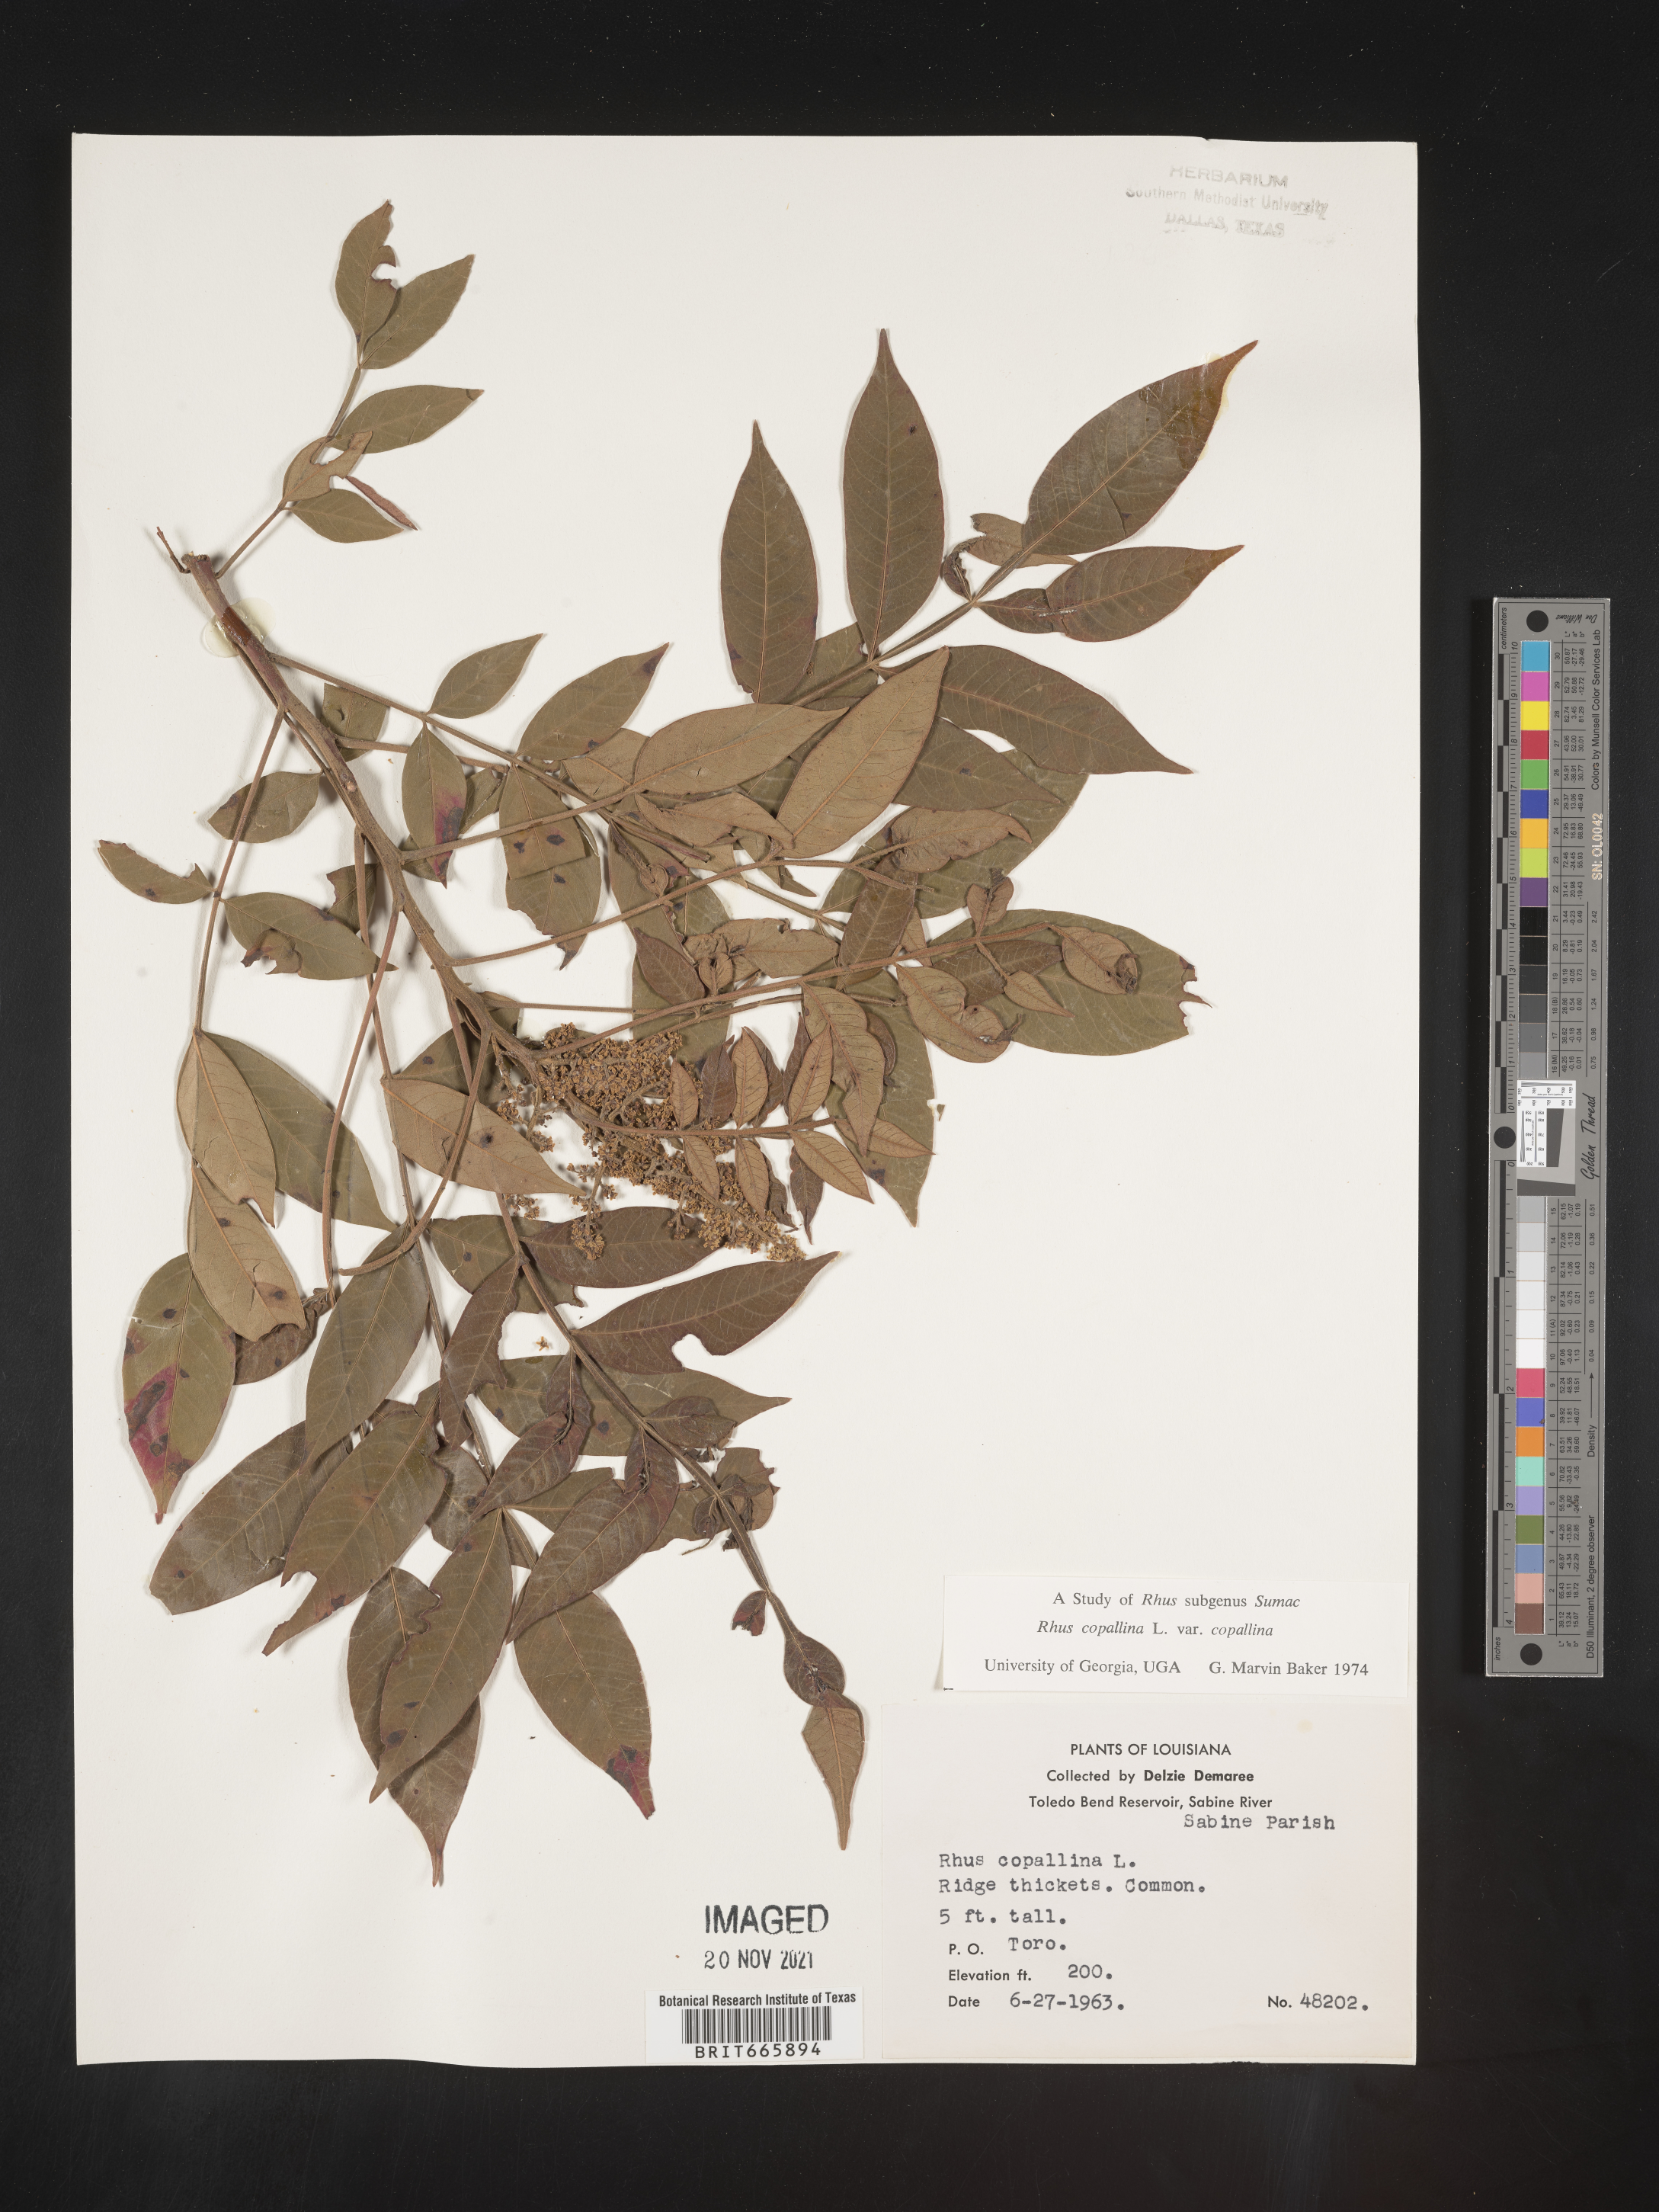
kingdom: Plantae
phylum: Tracheophyta
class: Magnoliopsida
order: Sapindales
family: Anacardiaceae
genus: Rhus
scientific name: Rhus copallina
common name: Shining sumac
